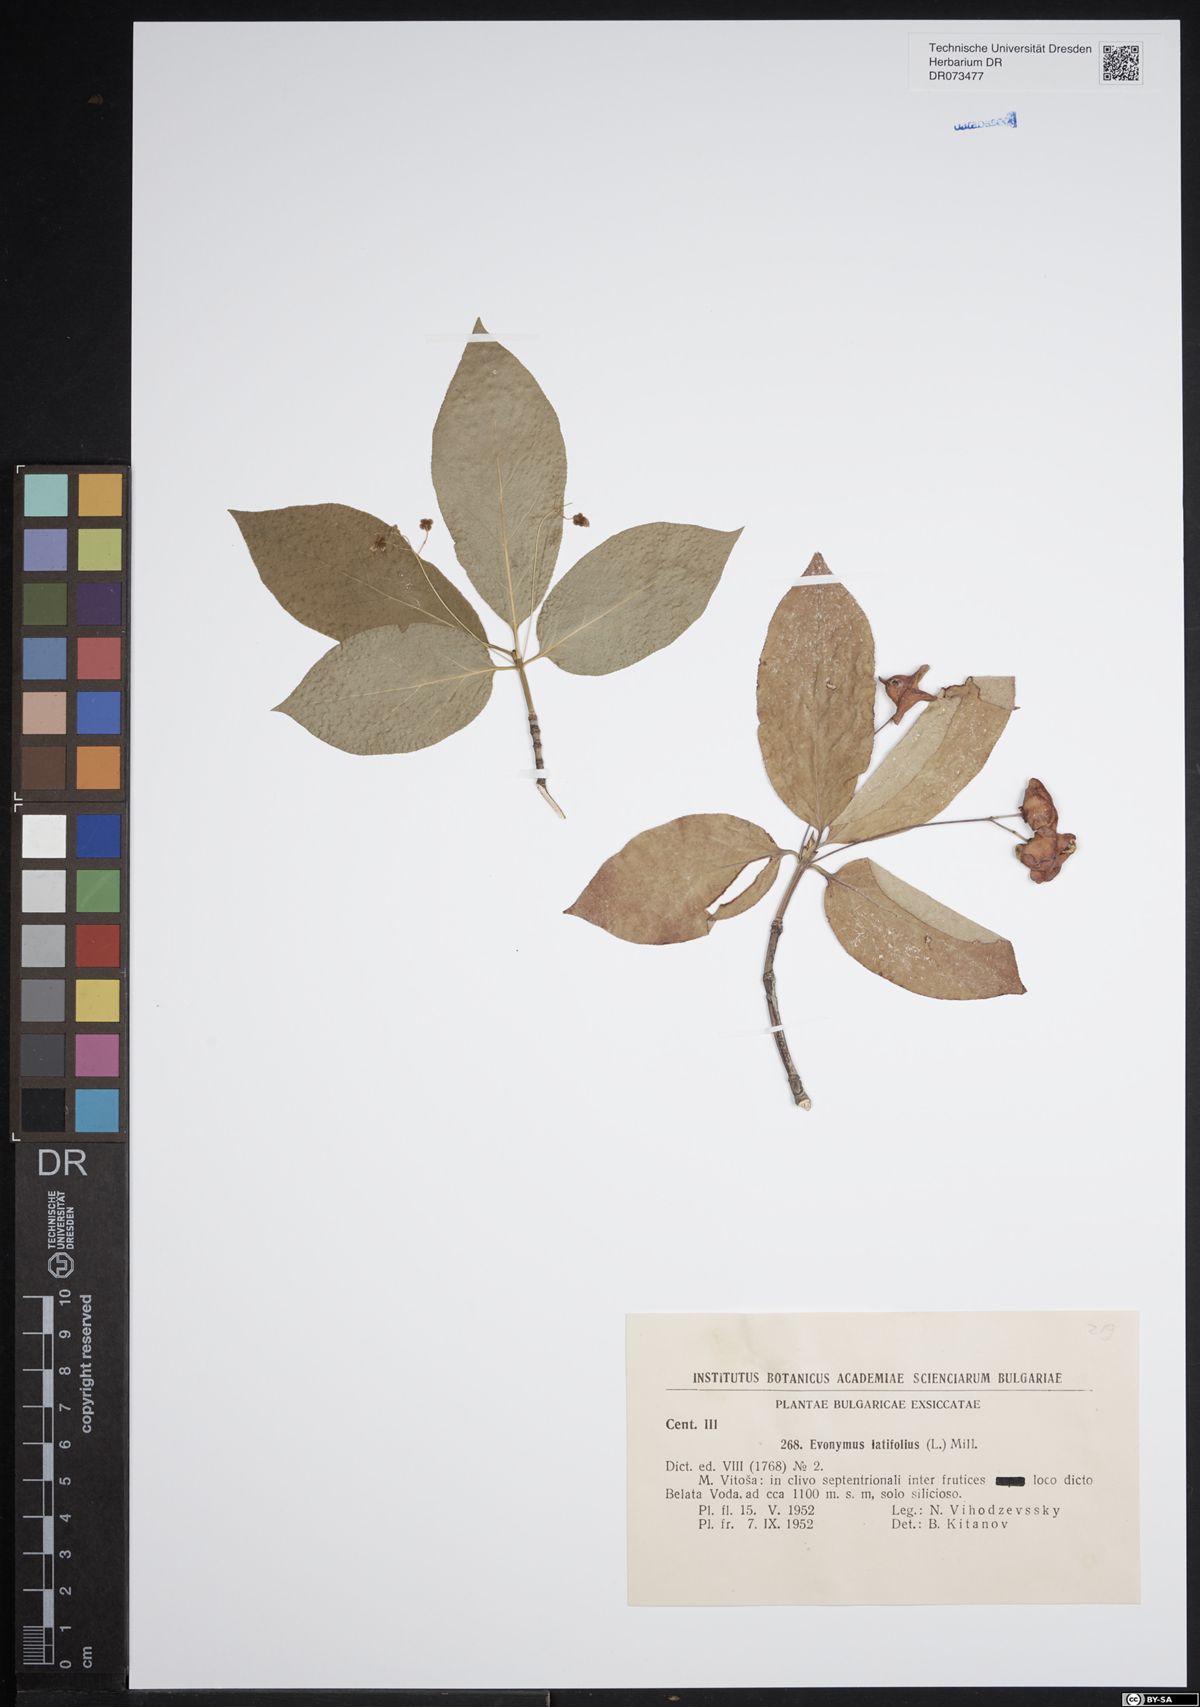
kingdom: Plantae
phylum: Tracheophyta
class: Magnoliopsida
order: Celastrales
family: Celastraceae
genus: Euonymus
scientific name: Euonymus latifolius
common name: Large-leaved spindle
